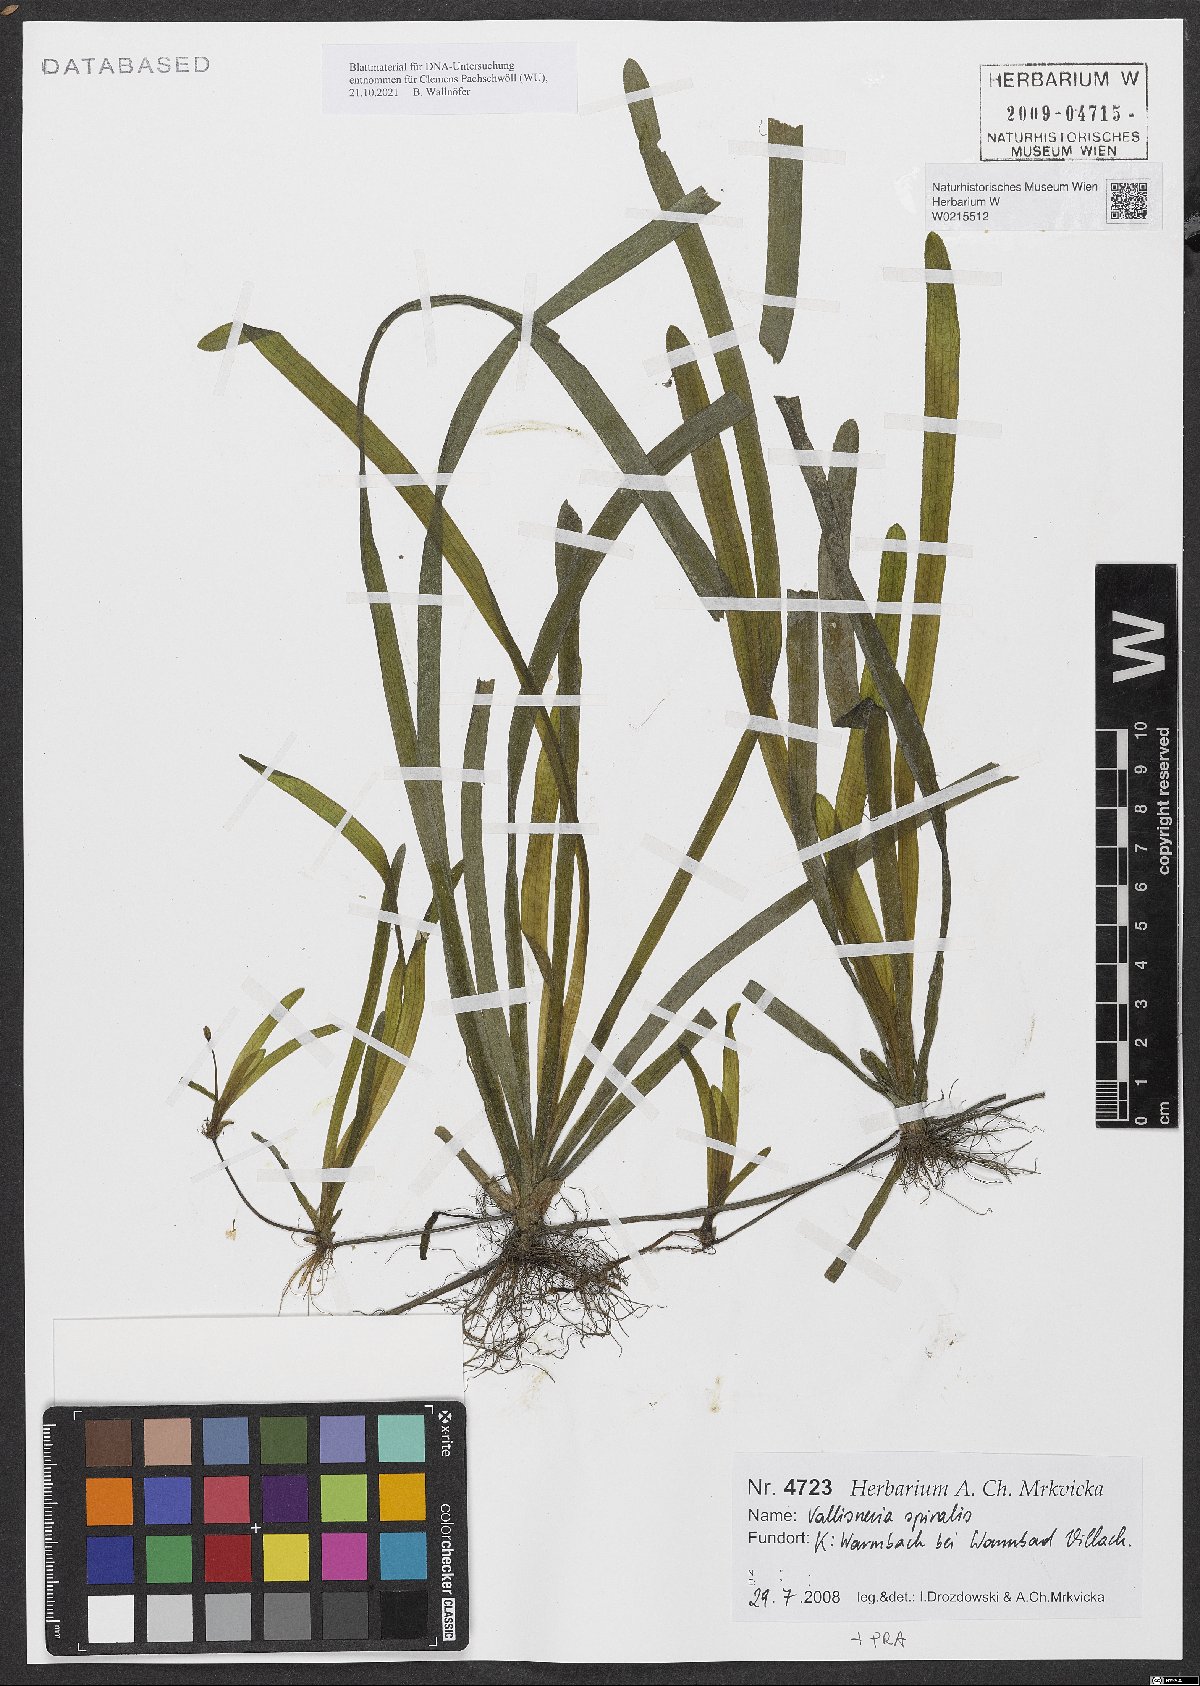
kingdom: Plantae
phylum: Tracheophyta
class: Liliopsida
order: Alismatales
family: Hydrocharitaceae
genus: Vallisneria
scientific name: Vallisneria spiralis
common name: Tapegrass
